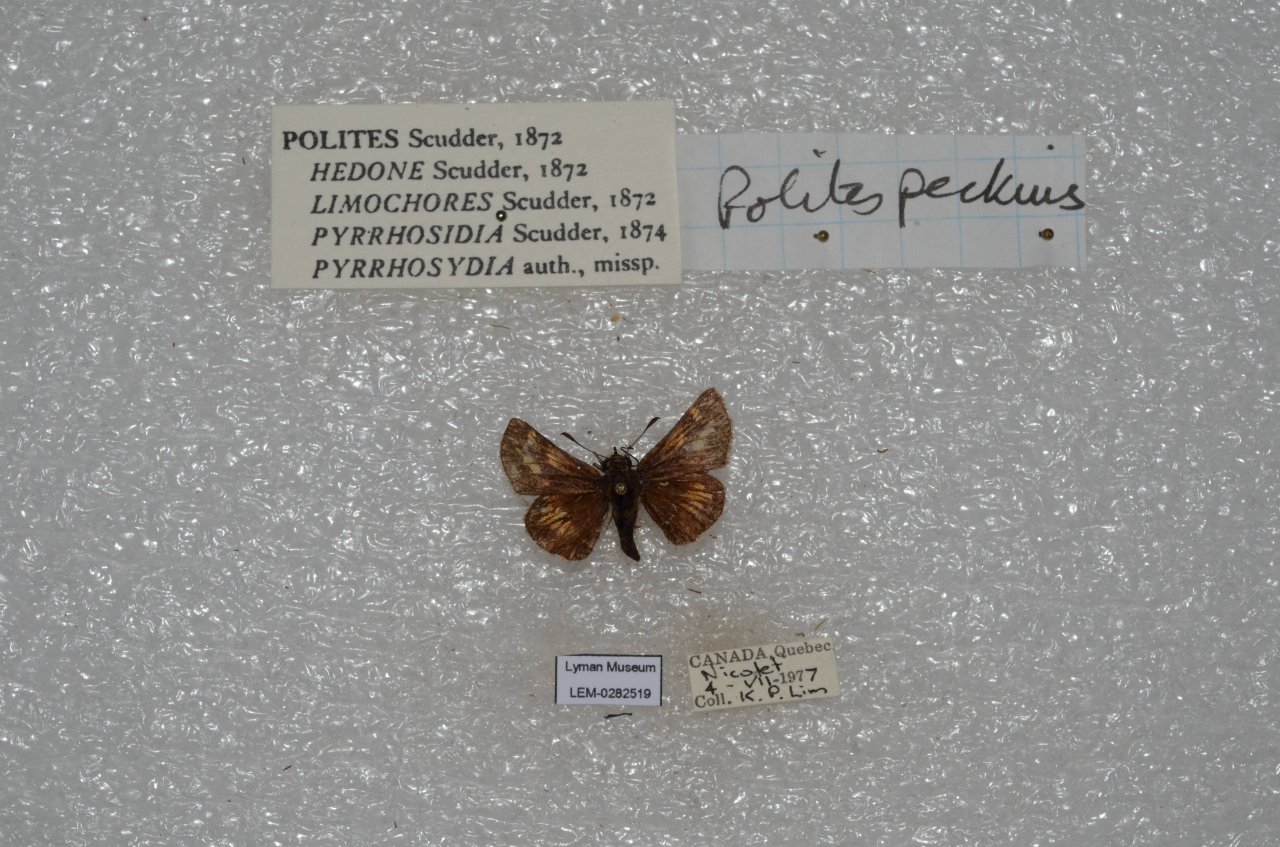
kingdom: Animalia
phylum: Arthropoda
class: Insecta
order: Lepidoptera
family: Hesperiidae
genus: Polites
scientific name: Polites coras
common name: Peck's Skipper
